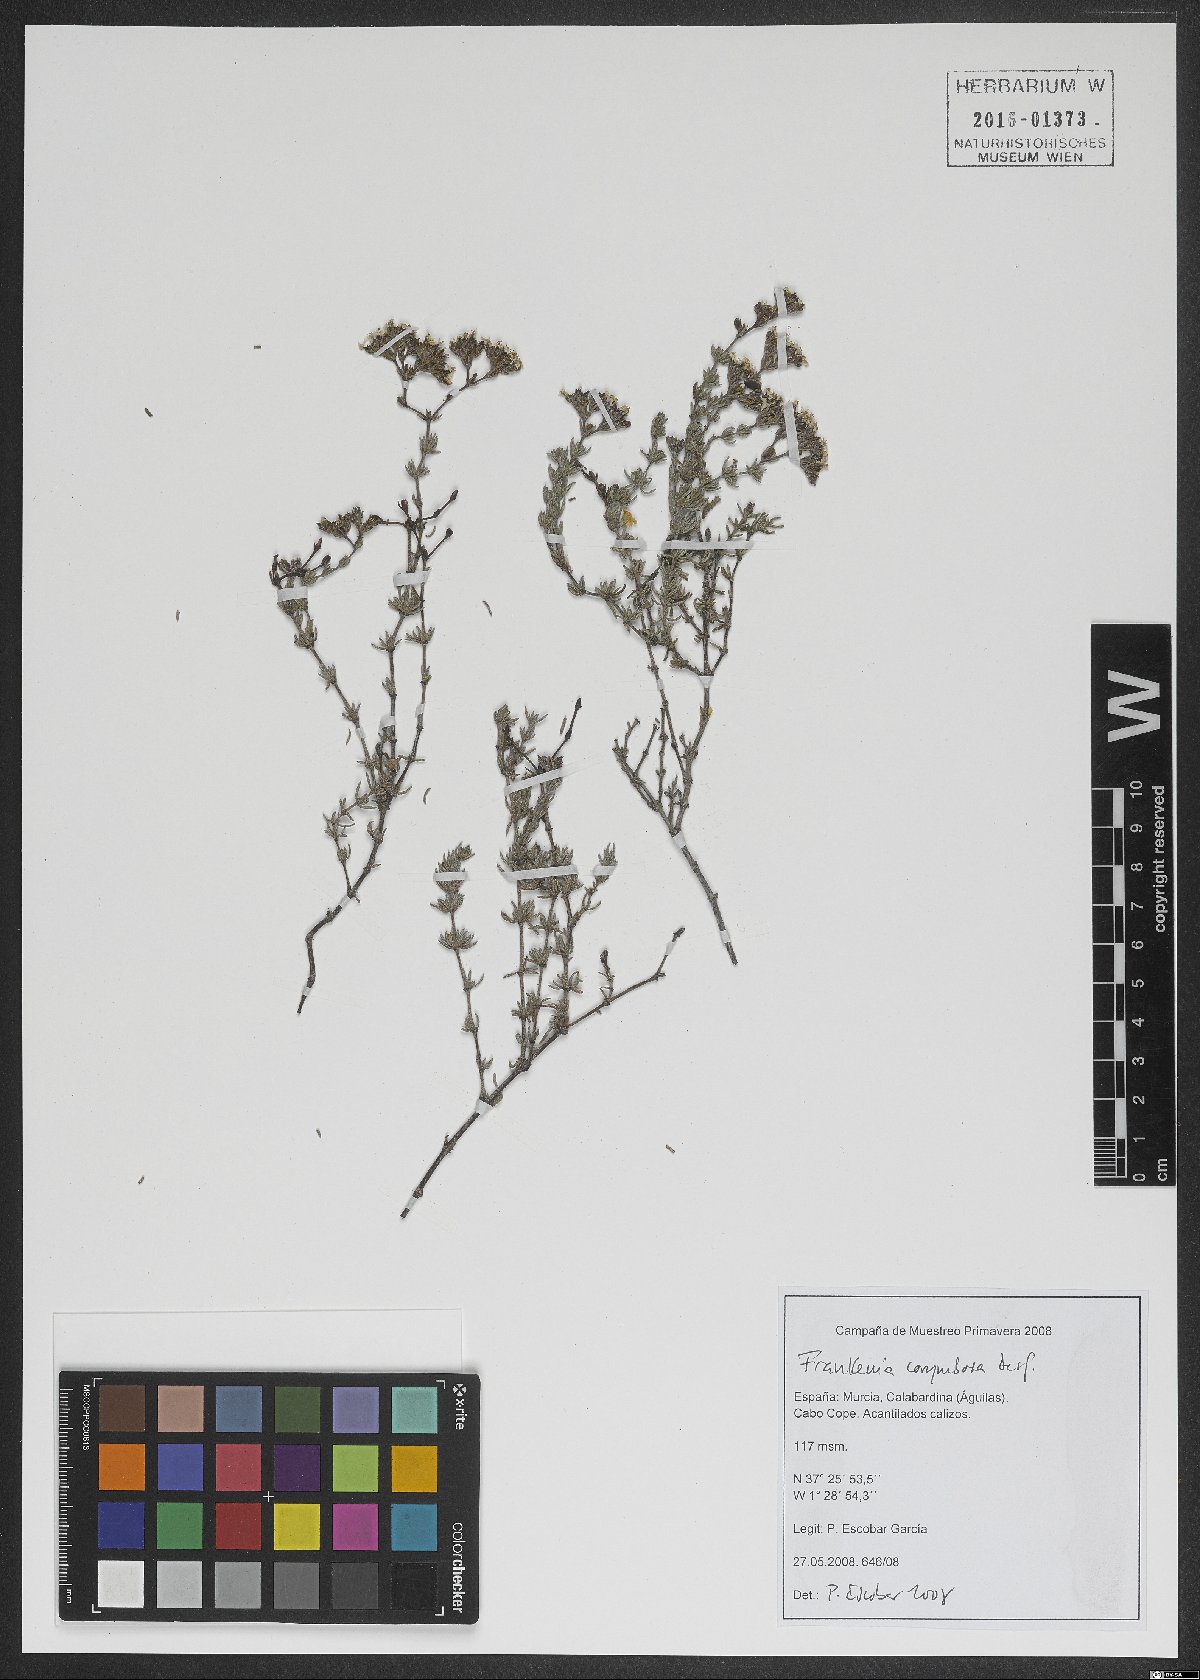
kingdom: Plantae
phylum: Tracheophyta
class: Magnoliopsida
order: Caryophyllales
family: Frankeniaceae
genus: Frankenia
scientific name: Frankenia corymbosa
